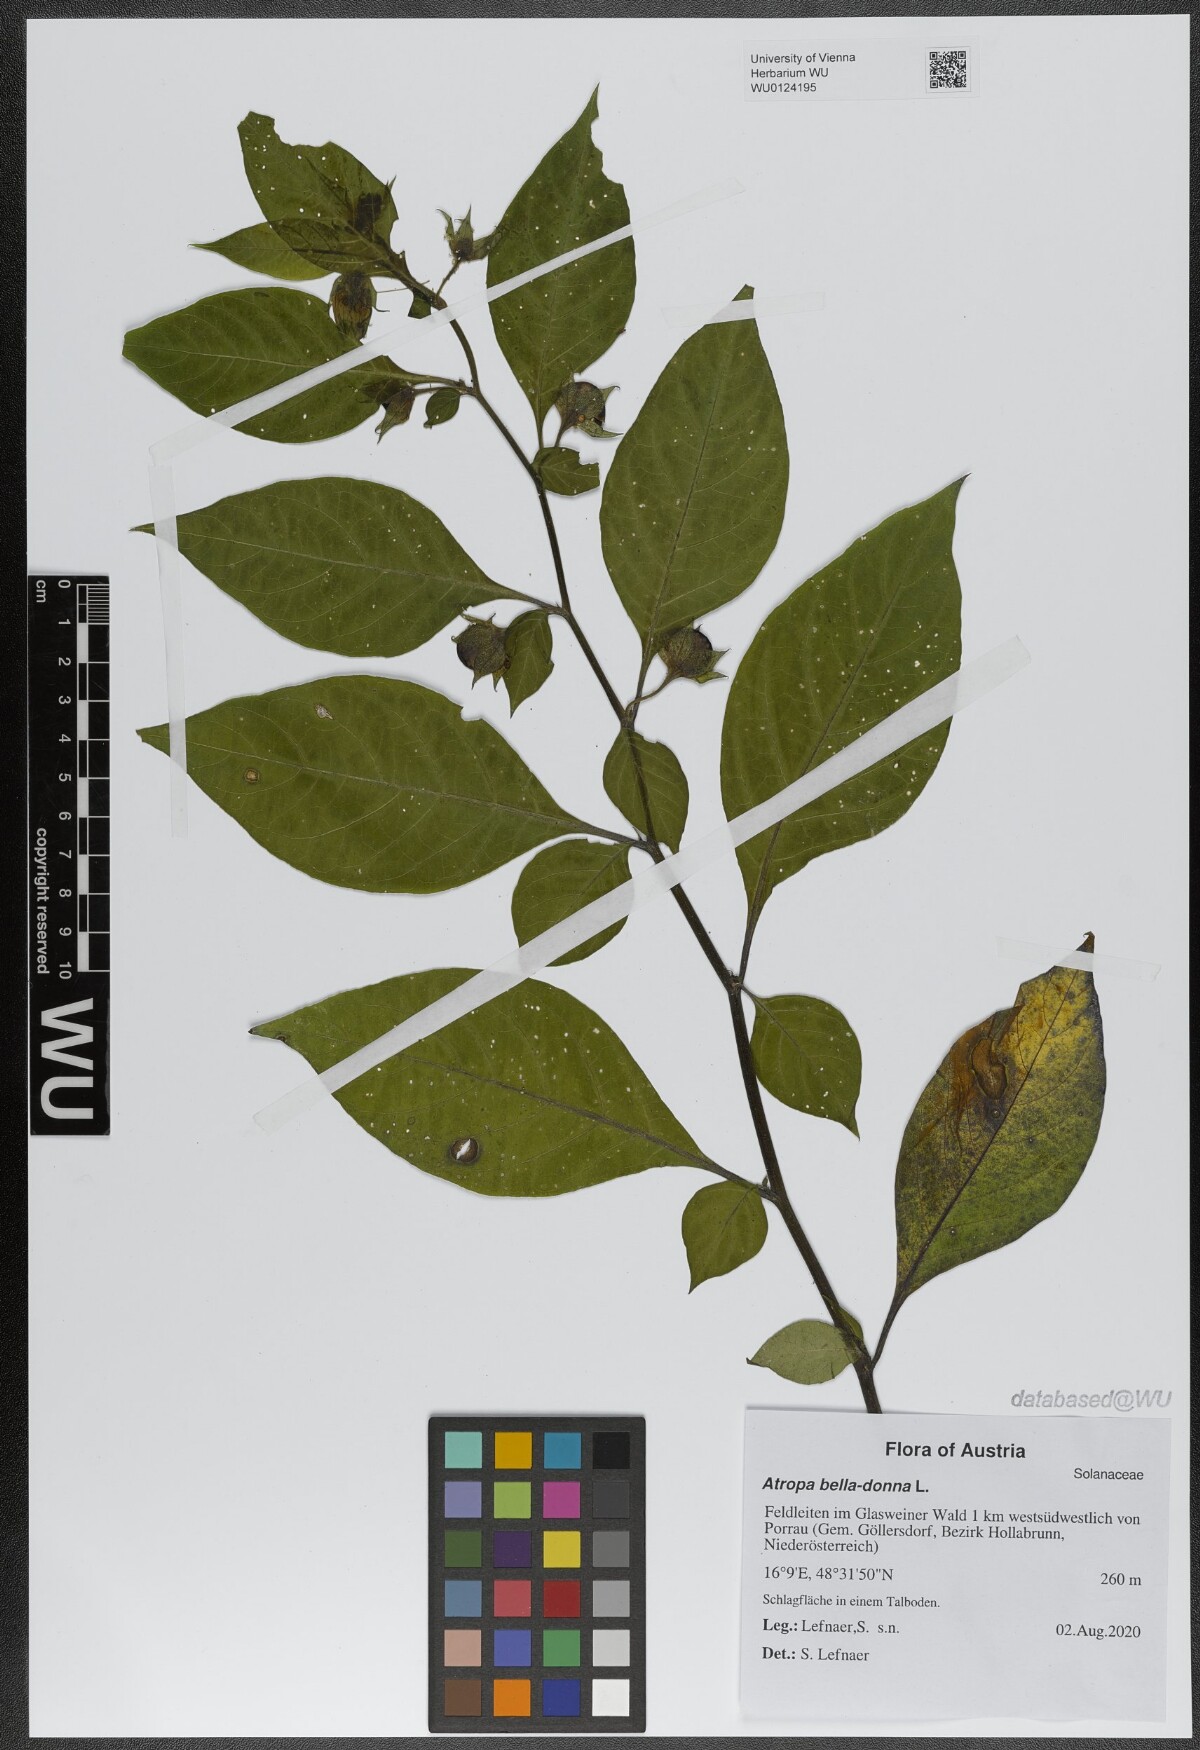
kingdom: Plantae
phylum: Tracheophyta
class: Magnoliopsida
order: Solanales
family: Solanaceae
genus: Atropa
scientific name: Atropa belladonna
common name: Deadly nightshade
